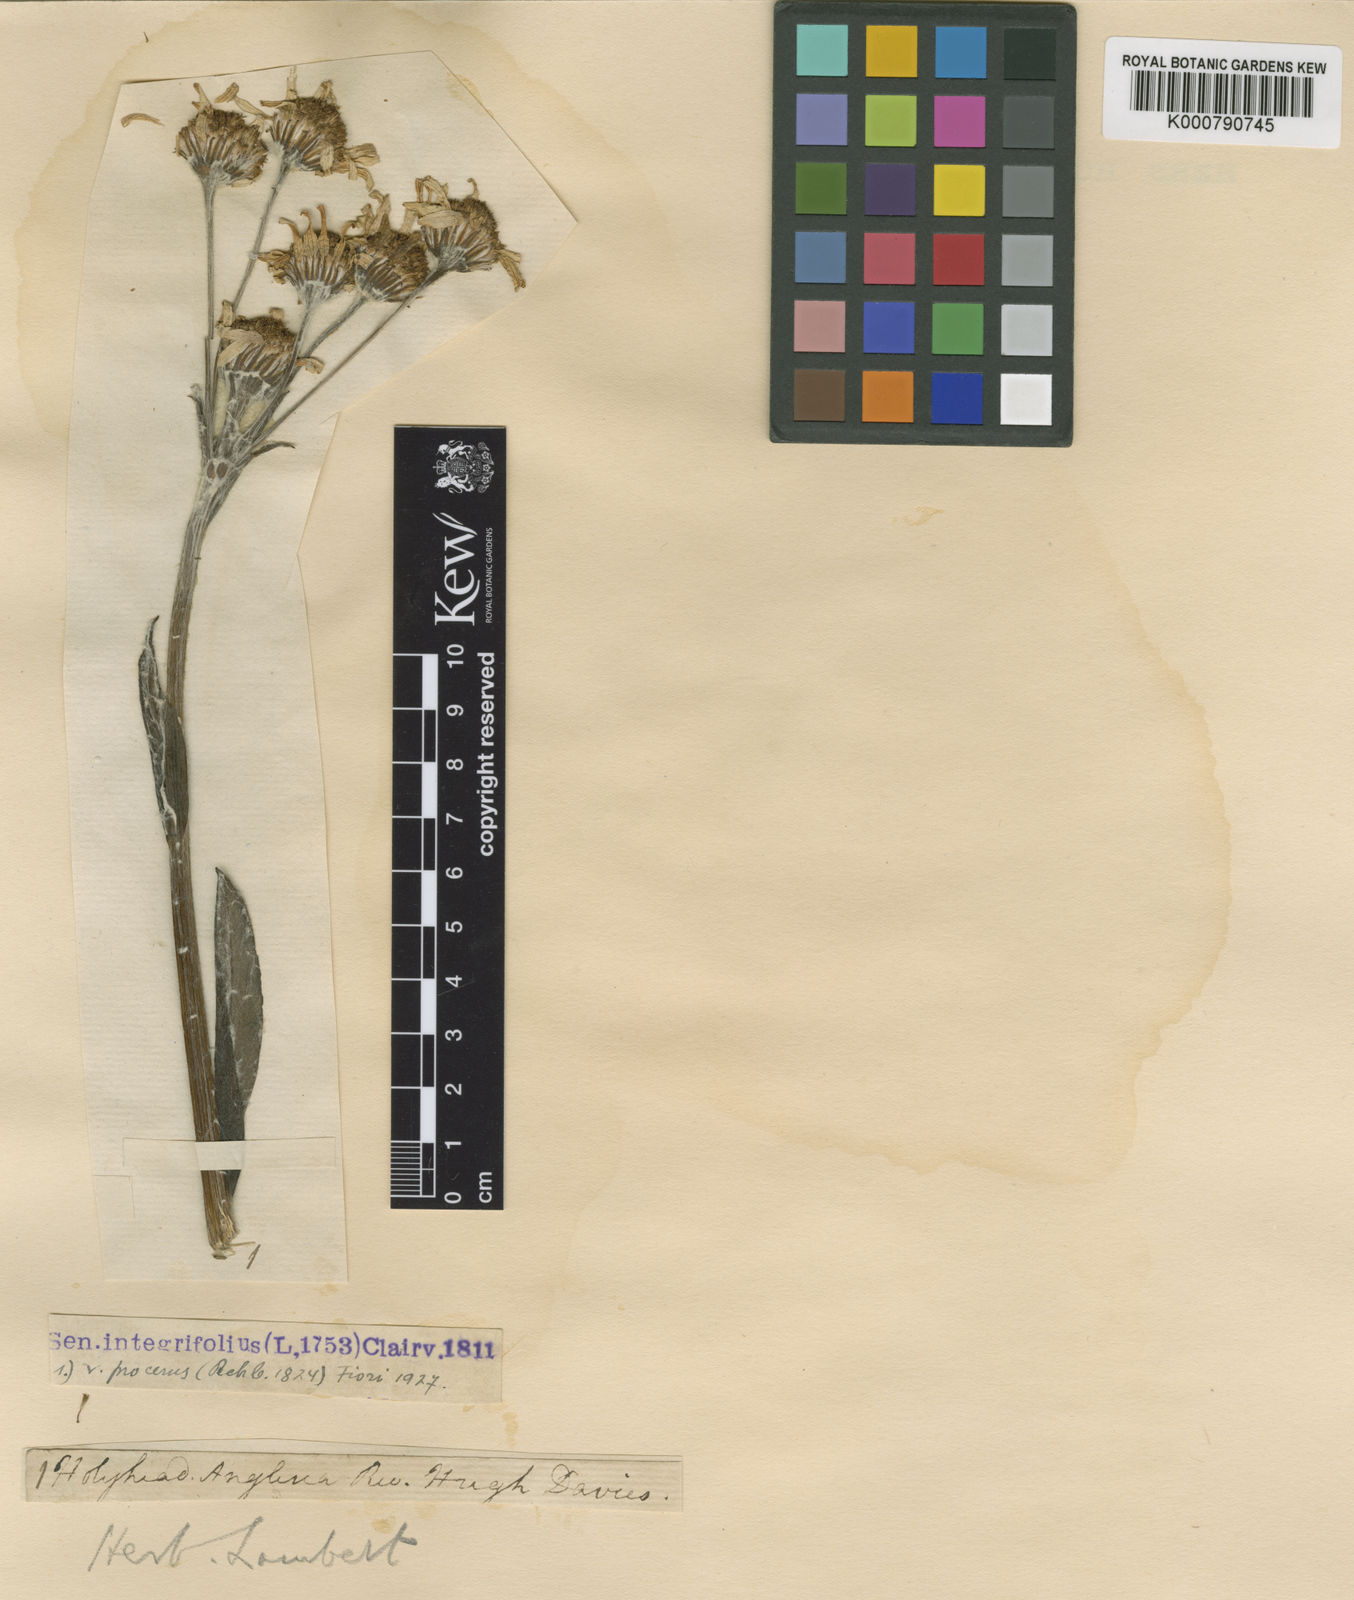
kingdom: Plantae
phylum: Tracheophyta
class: Magnoliopsida
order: Asterales
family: Asteraceae
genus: Tephroseris
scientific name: Tephroseris integrifolia
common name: Field fleawort
